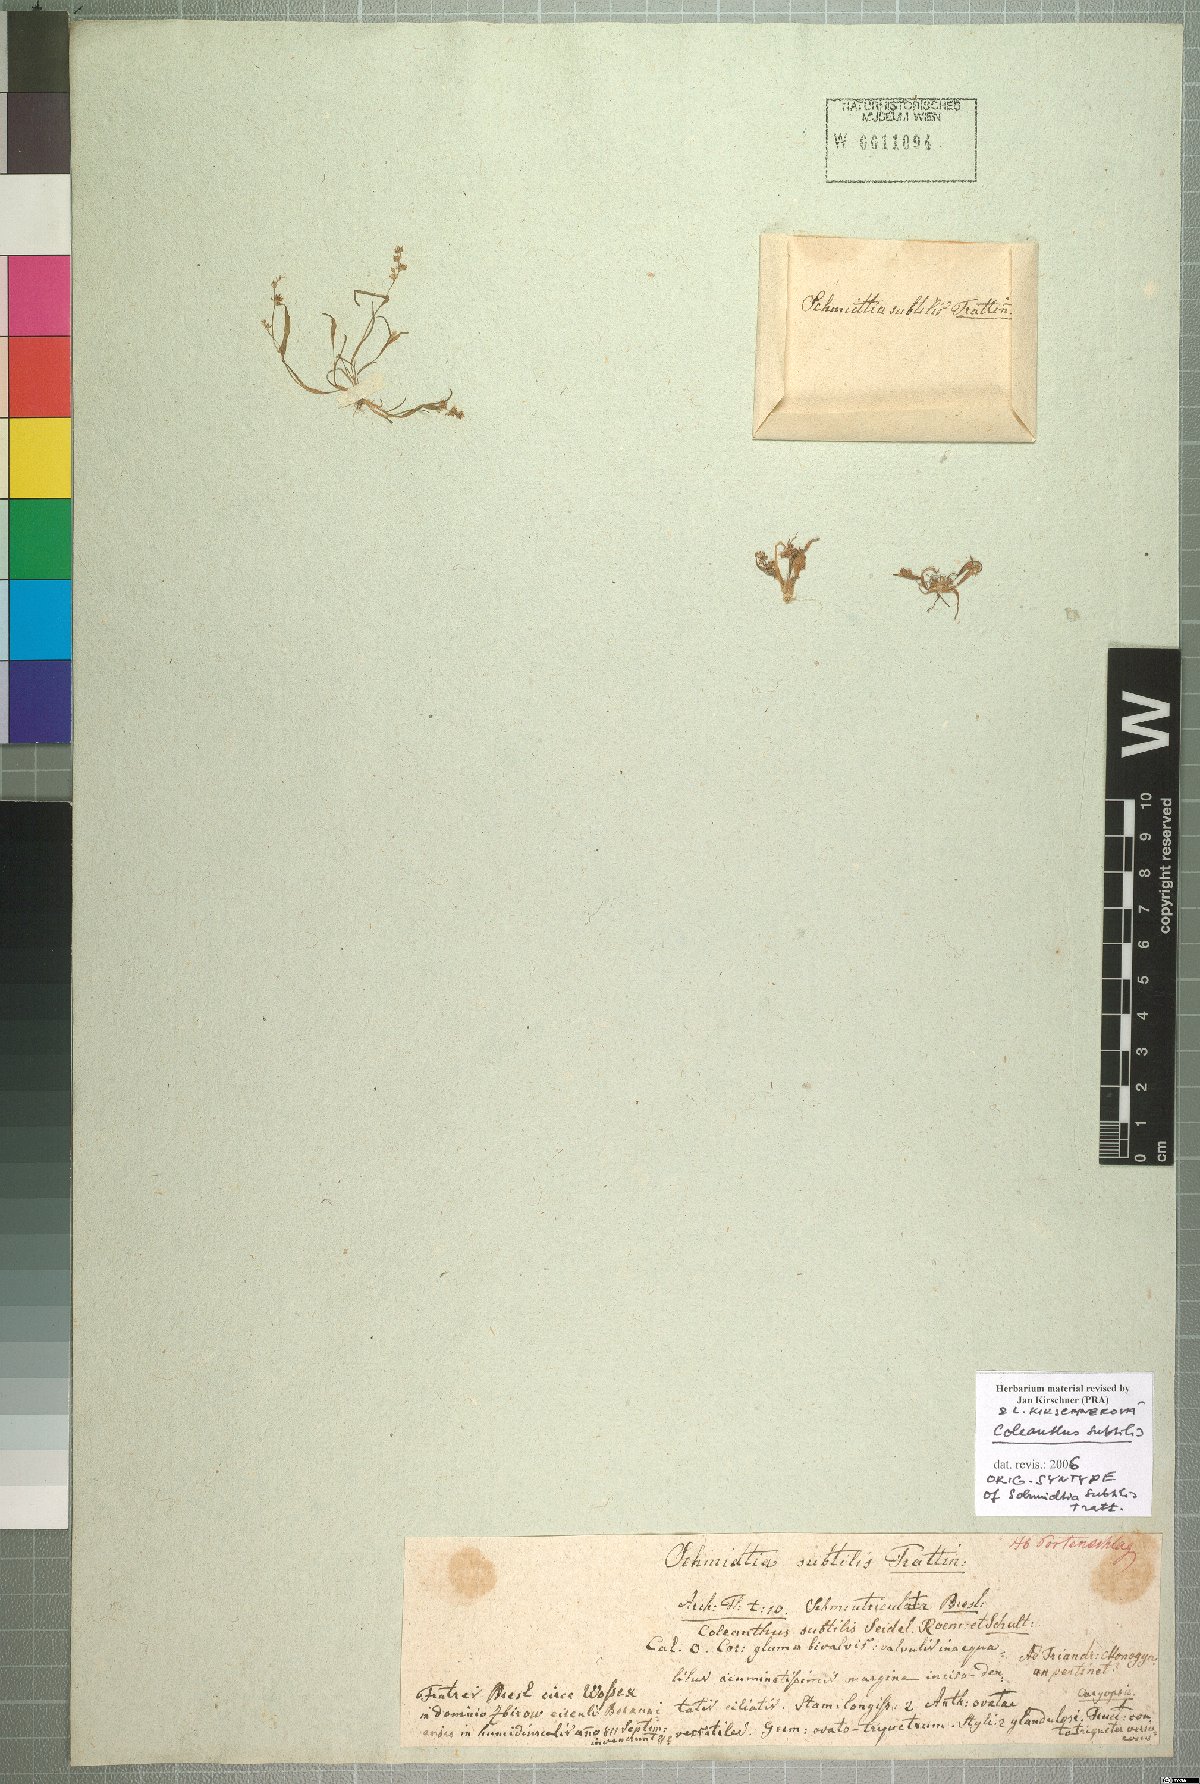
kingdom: Plantae
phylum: Tracheophyta
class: Liliopsida
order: Poales
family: Poaceae
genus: Coleanthus
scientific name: Coleanthus subtilis
